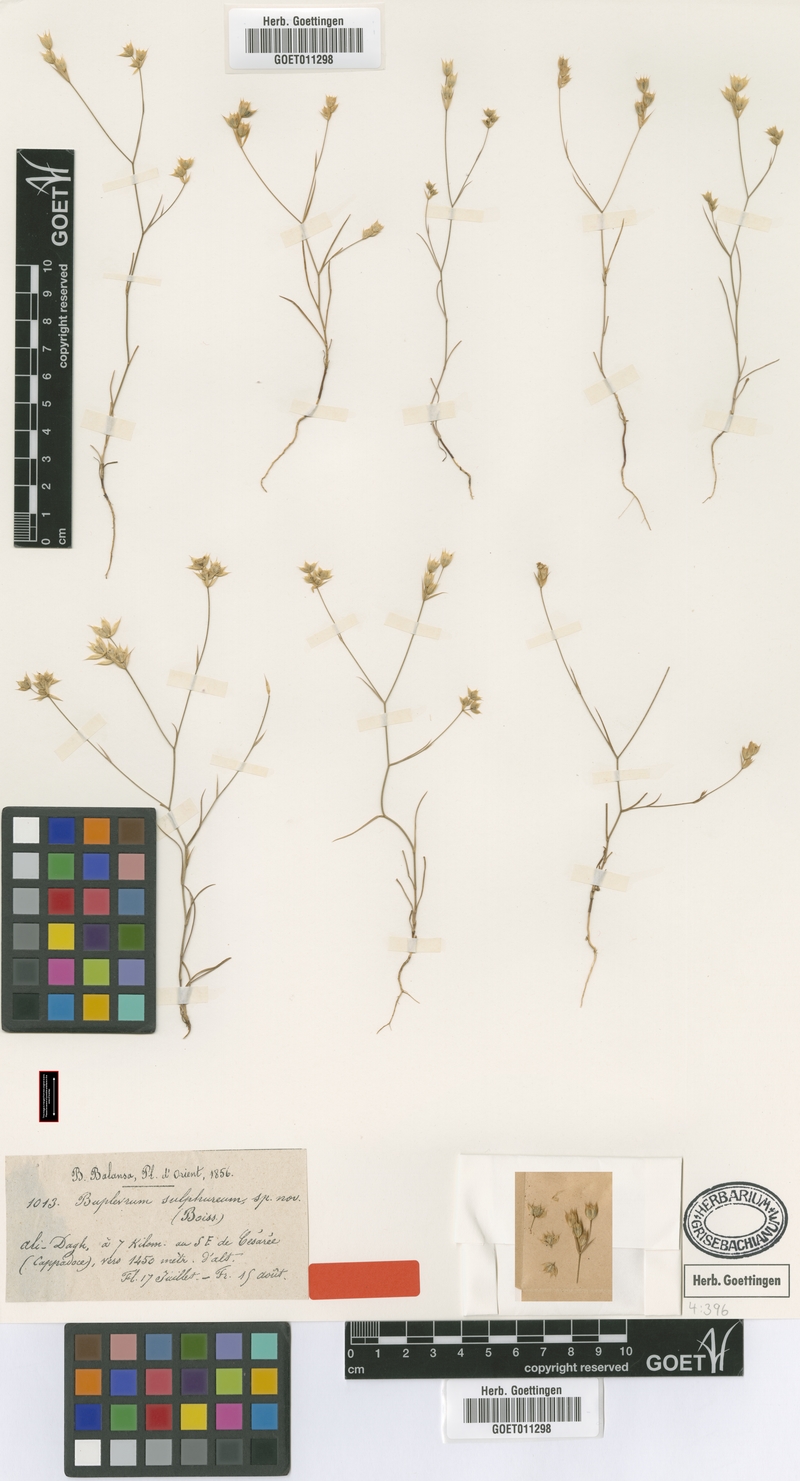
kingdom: Plantae
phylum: Tracheophyta
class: Magnoliopsida
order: Apiales
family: Apiaceae
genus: Bupleurum
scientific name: Bupleurum sulphureum
